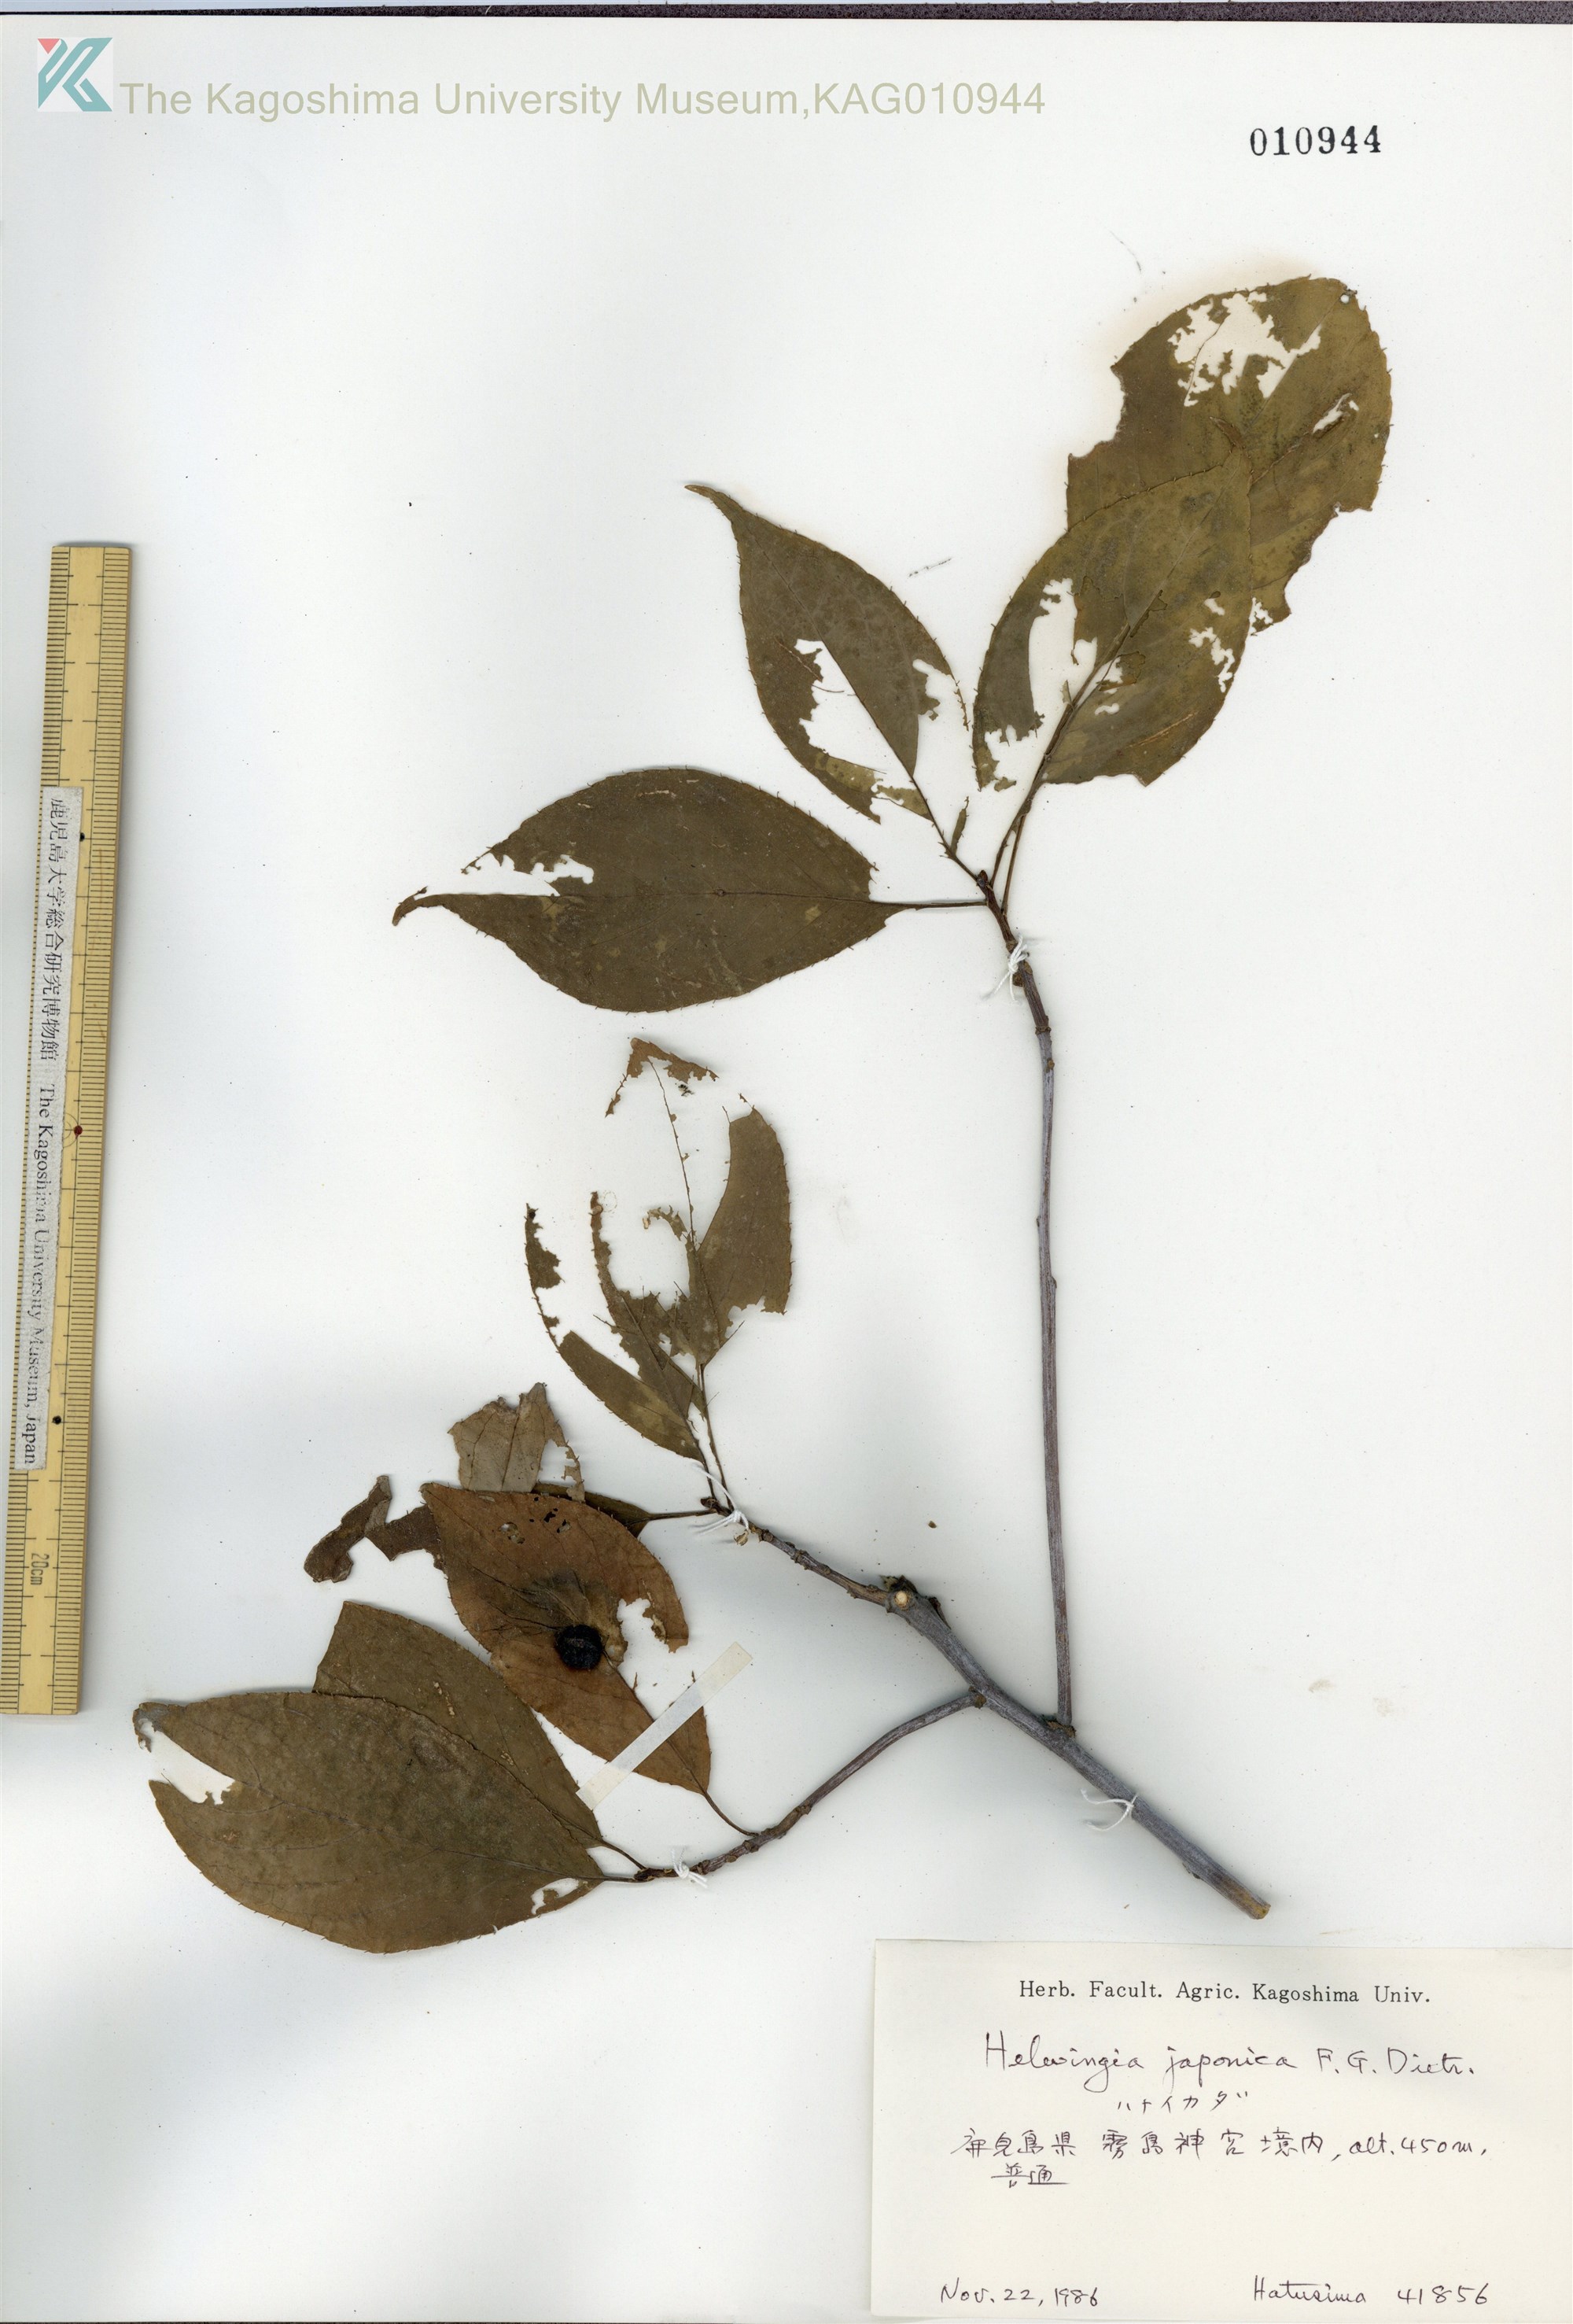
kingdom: Plantae
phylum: Tracheophyta
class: Magnoliopsida
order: Aquifoliales
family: Helwingiaceae
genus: Helwingia
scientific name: Helwingia japonica
